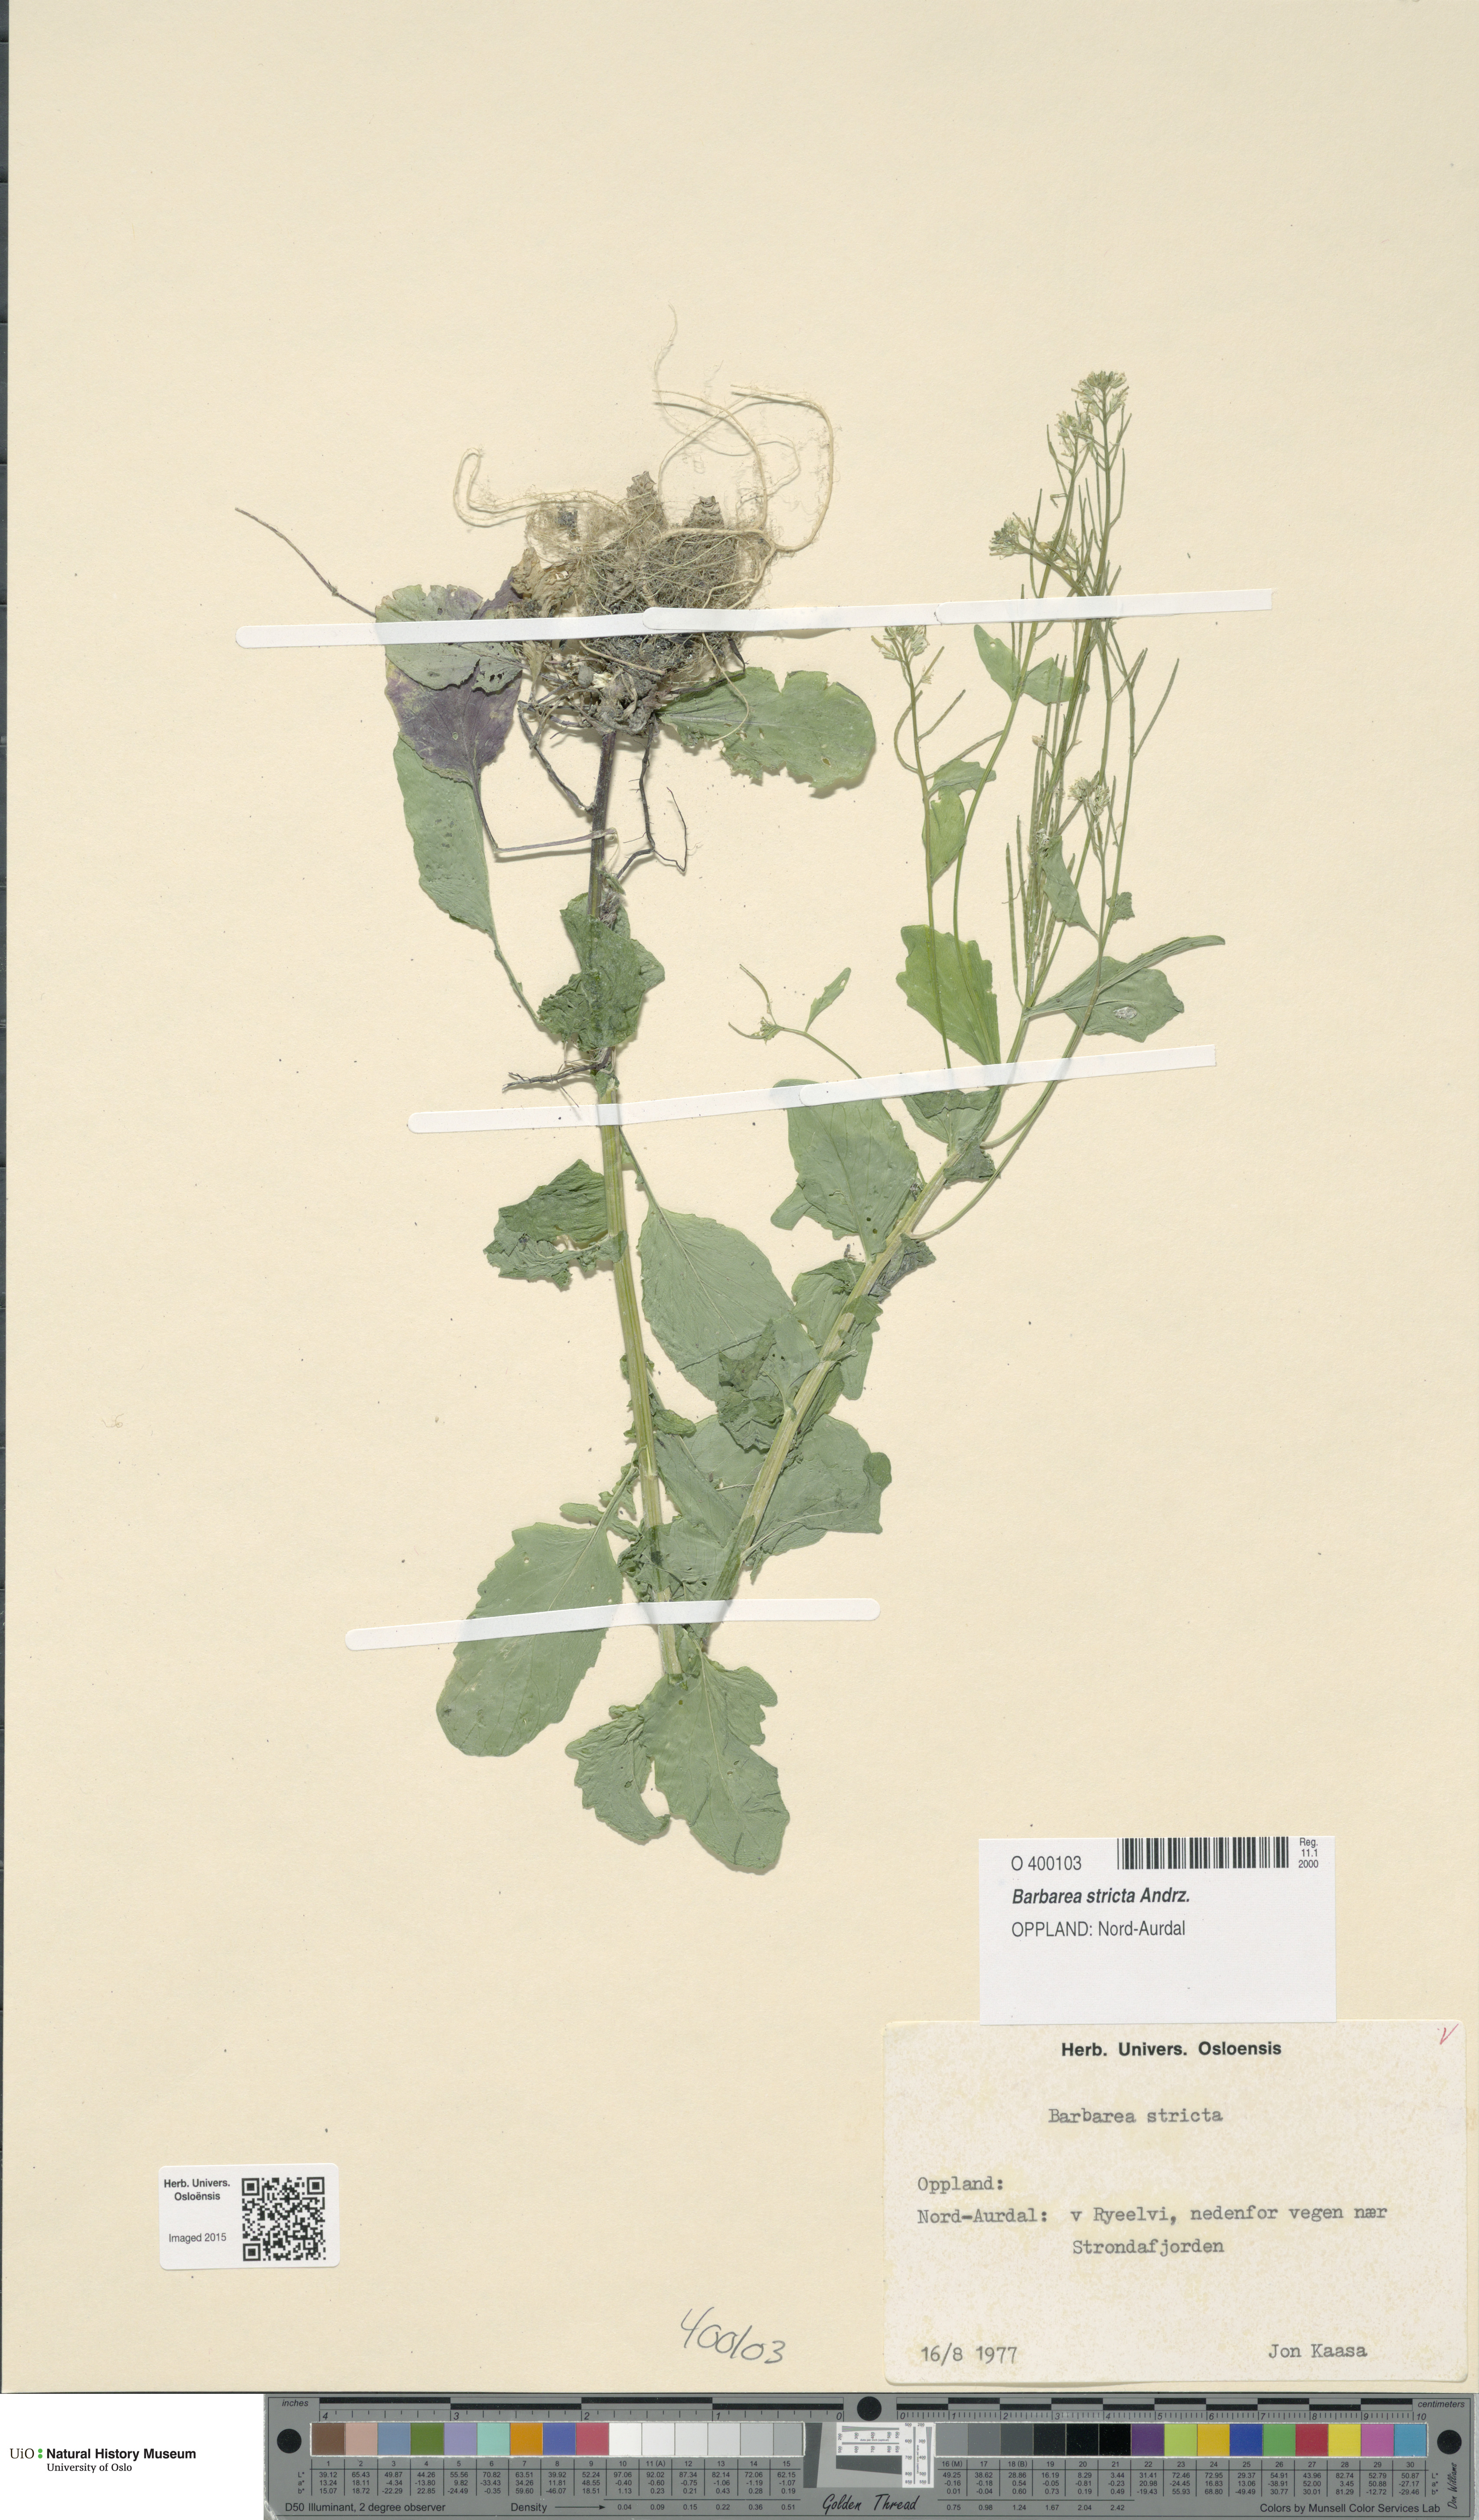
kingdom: Plantae
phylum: Tracheophyta
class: Magnoliopsida
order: Brassicales
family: Brassicaceae
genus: Barbarea
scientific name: Barbarea stricta
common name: Small-flowered winter-cress
